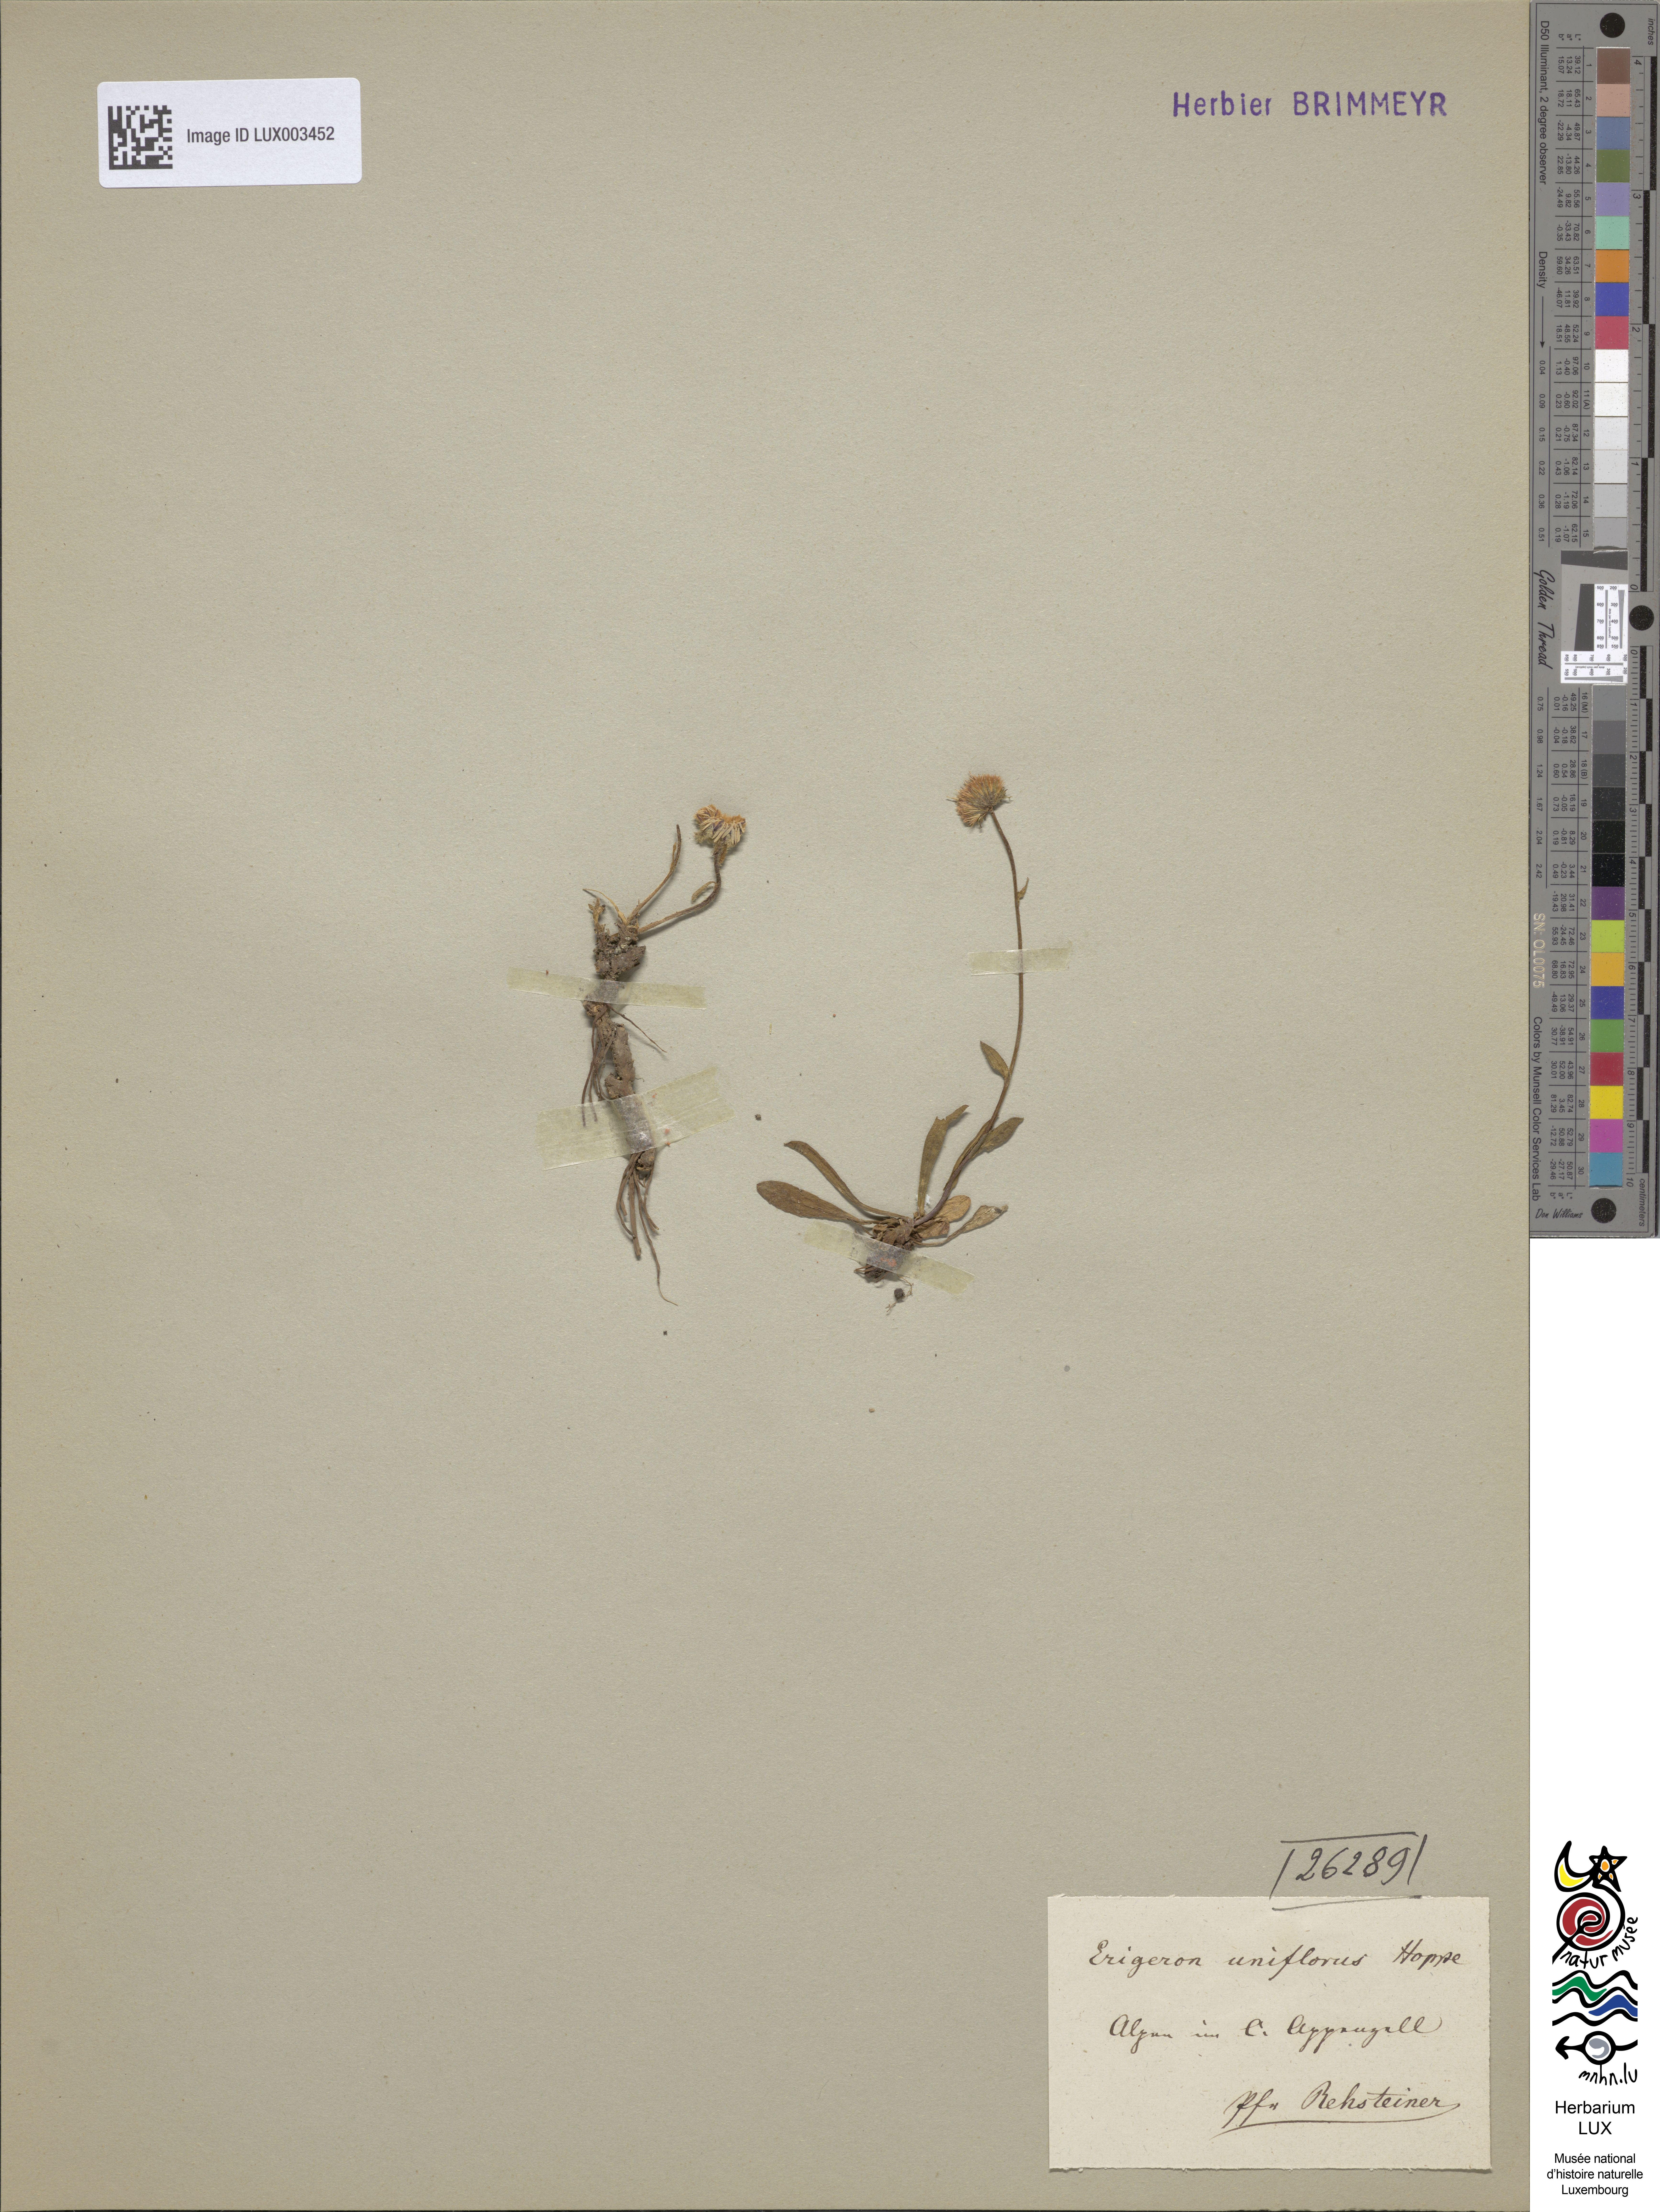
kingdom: Plantae
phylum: Tracheophyta
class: Magnoliopsida
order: Asterales
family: Asteraceae
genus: Erigeron
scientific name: Erigeron uniflorus
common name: Northern daisy
